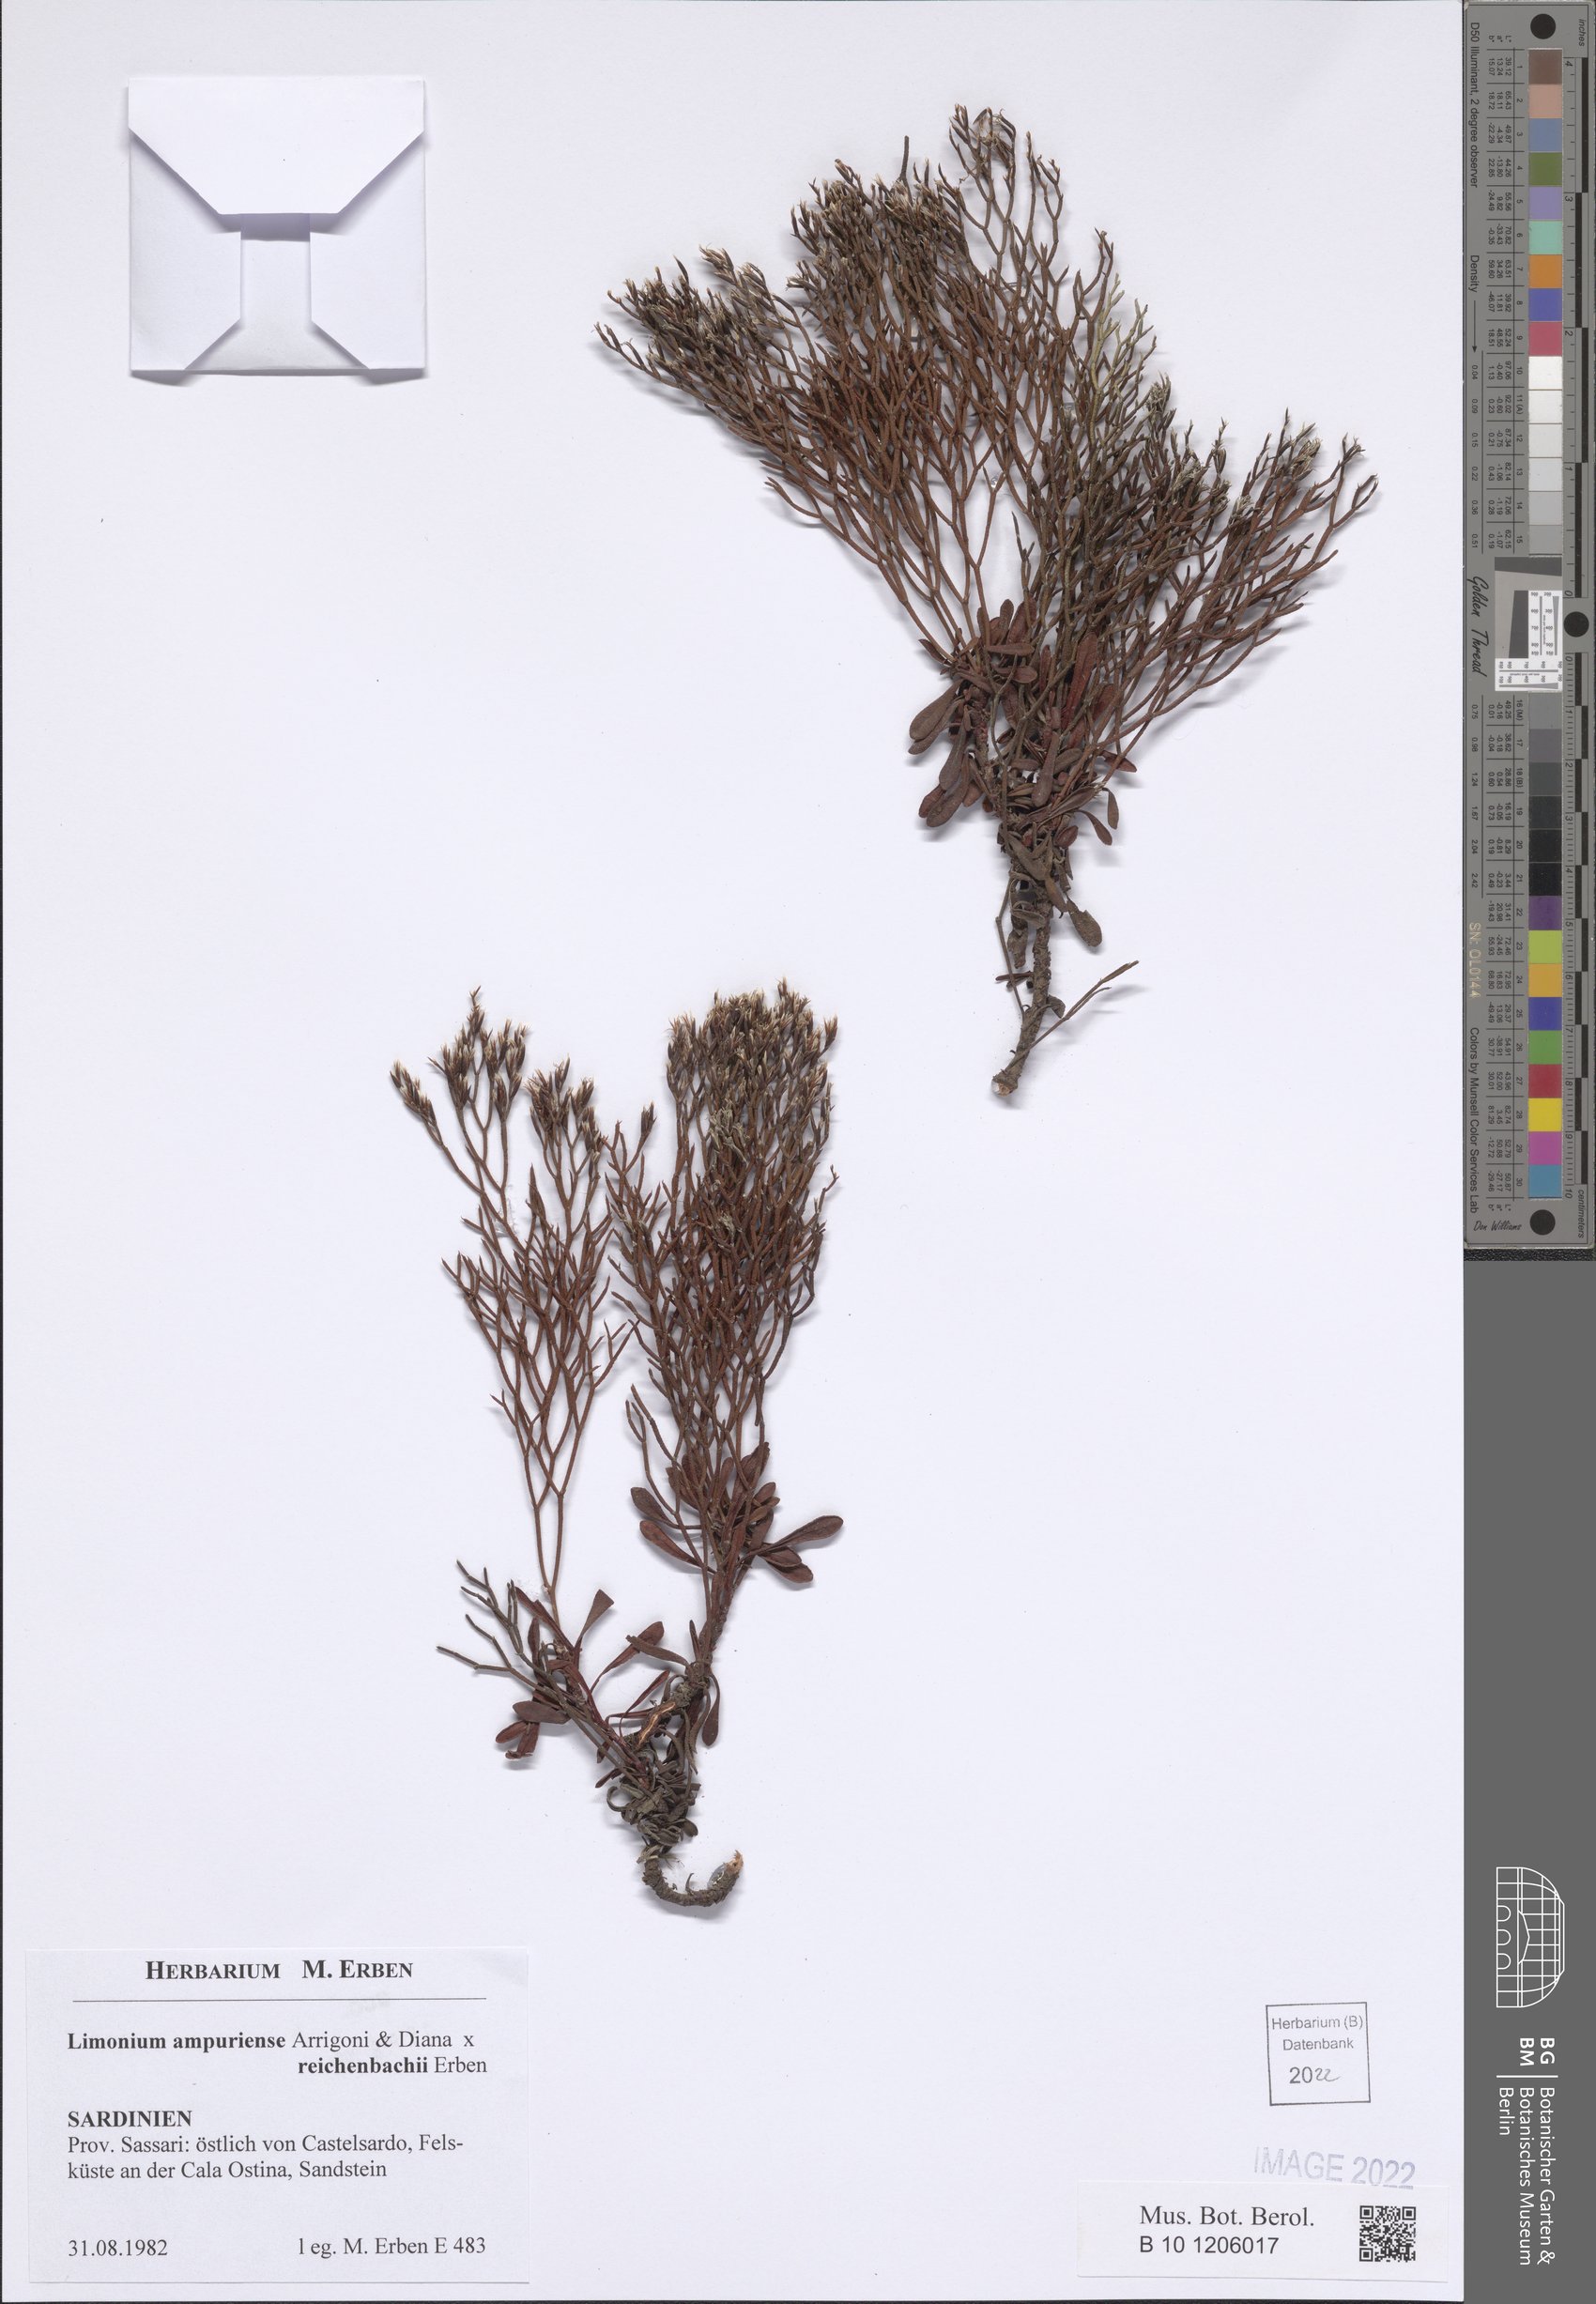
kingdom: Plantae
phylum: Tracheophyta
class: Magnoliopsida
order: Caryophyllales
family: Plumbaginaceae
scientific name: Plumbaginaceae
